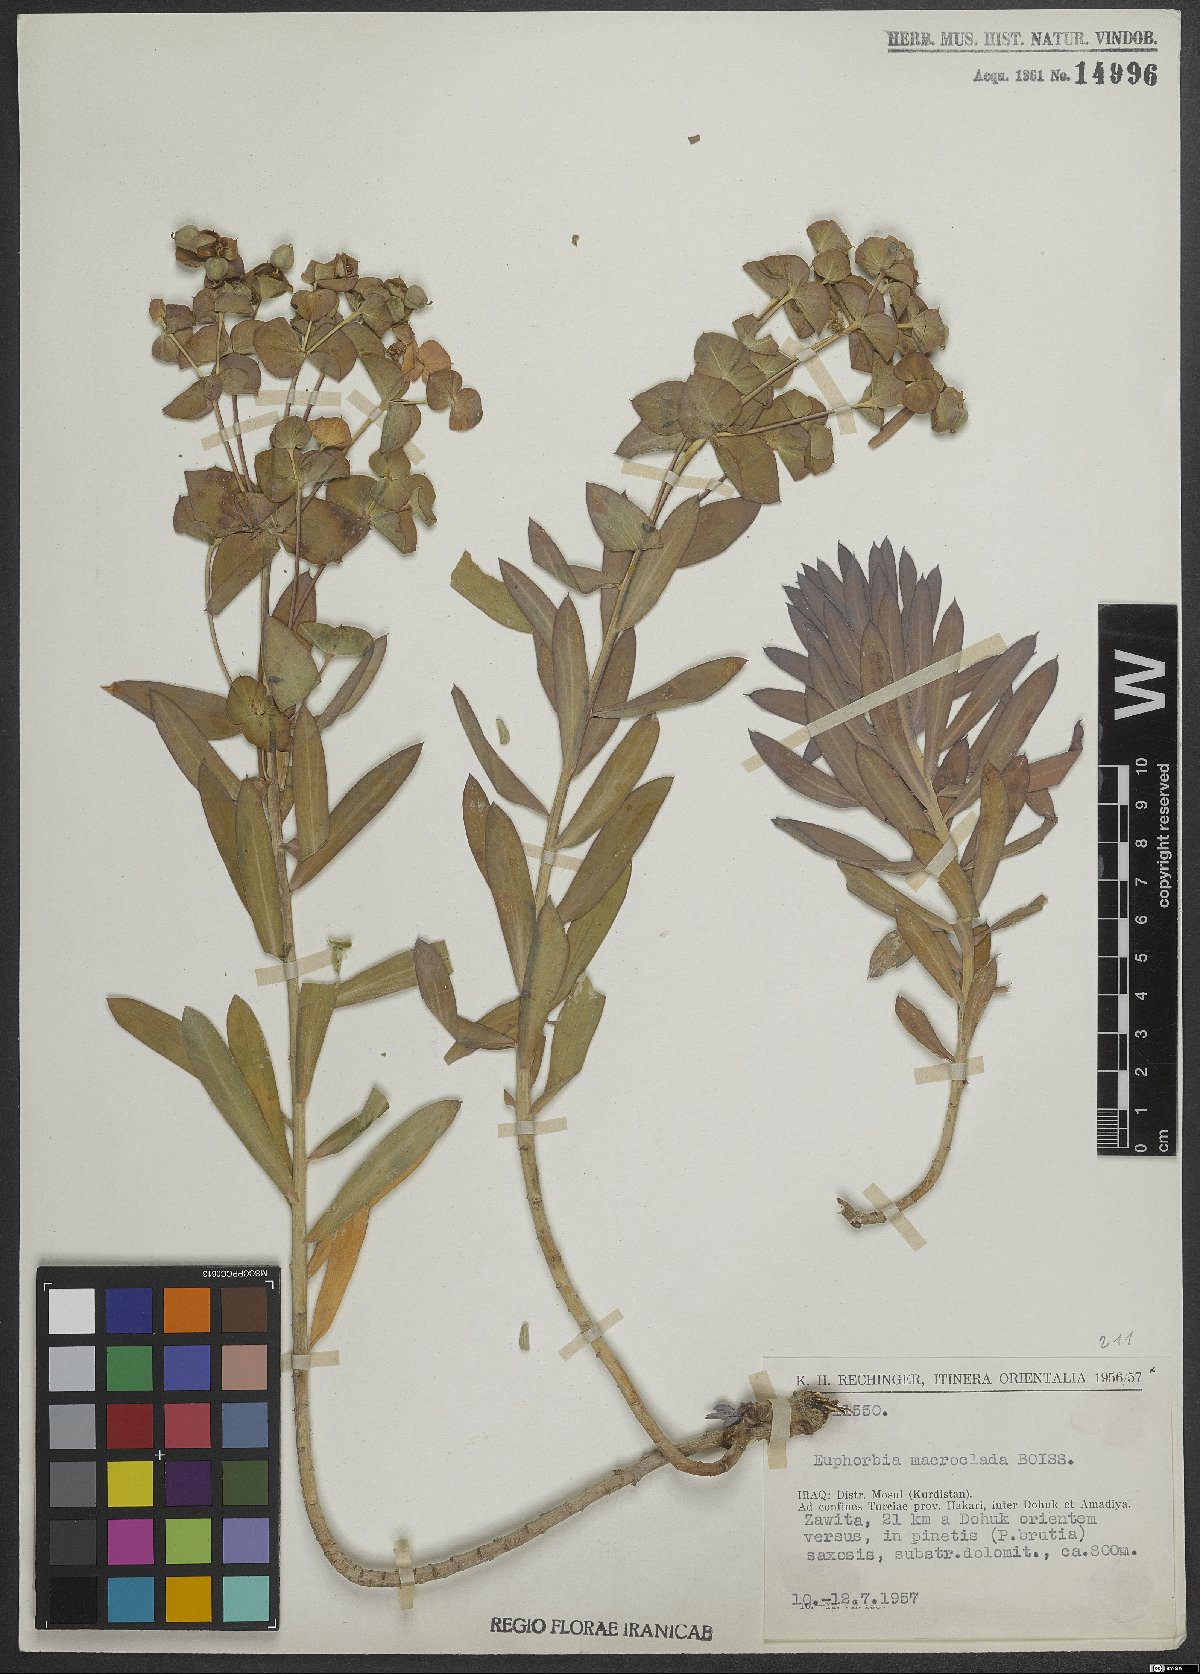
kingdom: Plantae
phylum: Tracheophyta
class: Magnoliopsida
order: Malpighiales
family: Euphorbiaceae
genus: Euphorbia
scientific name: Euphorbia macroclada
